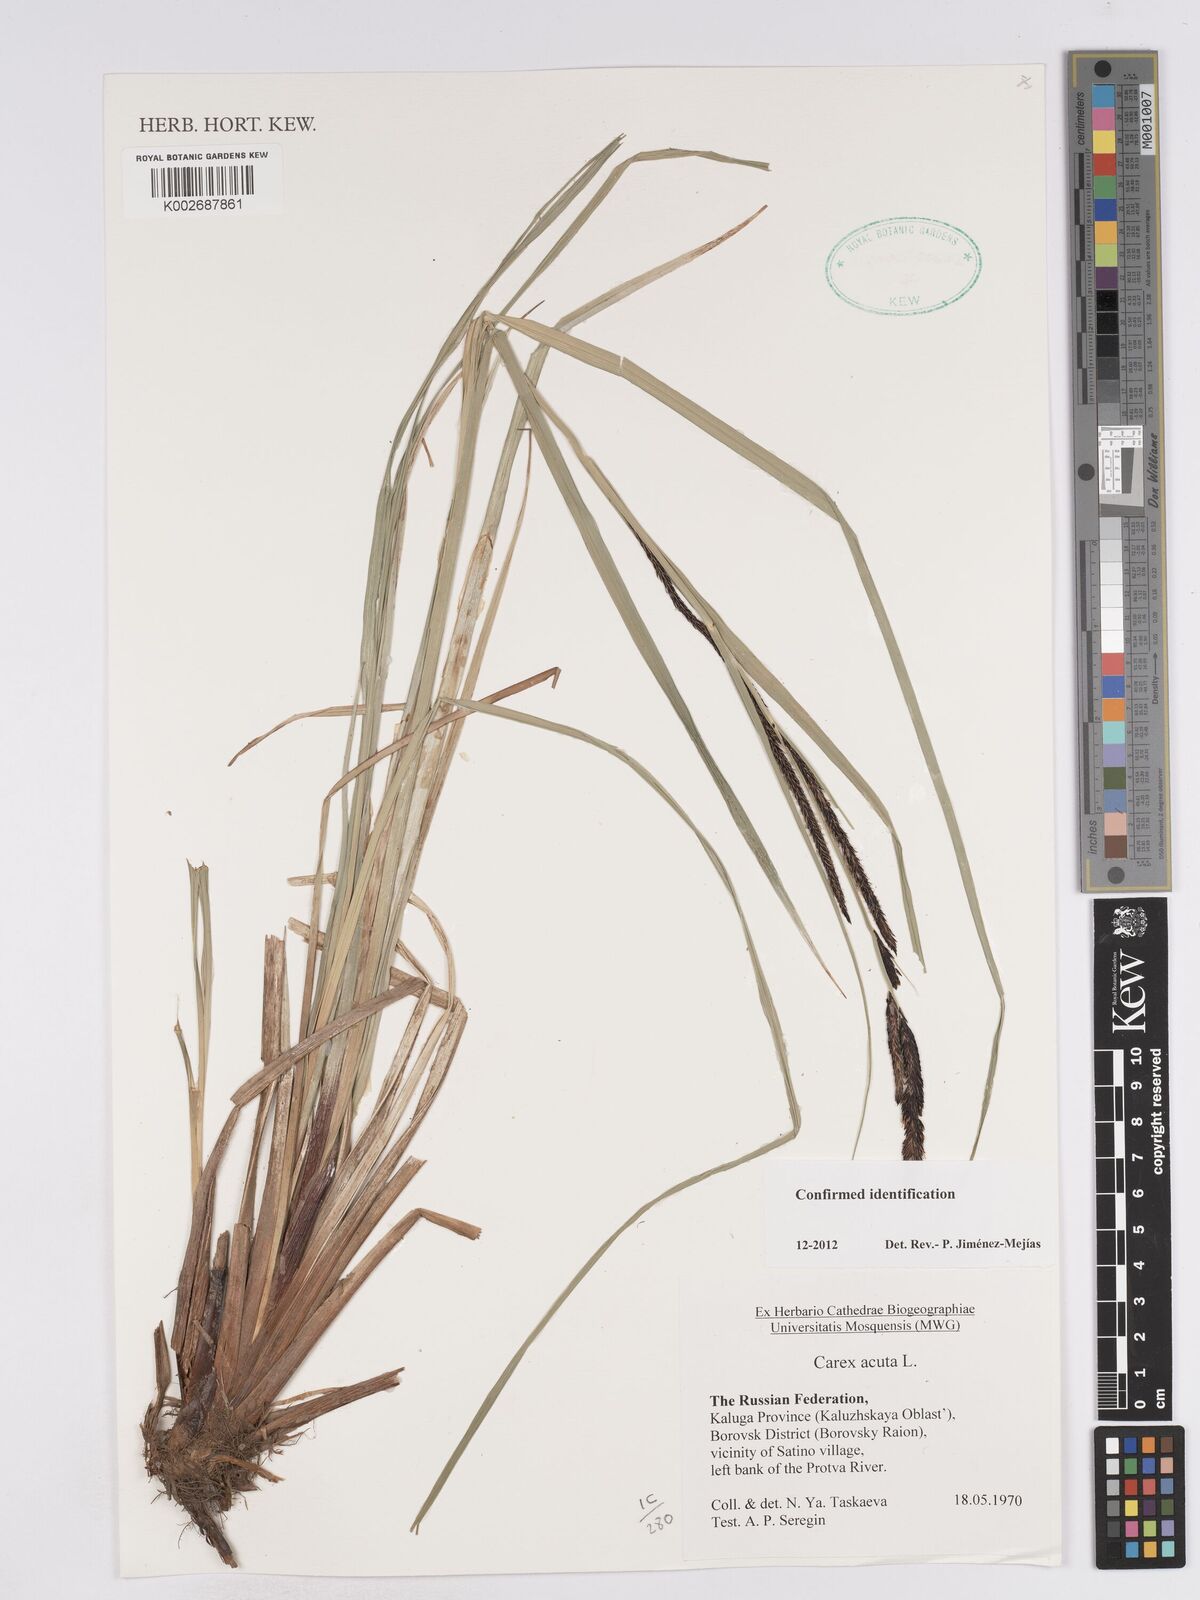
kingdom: Plantae
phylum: Tracheophyta
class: Liliopsida
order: Poales
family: Cyperaceae
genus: Carex
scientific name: Carex acuta
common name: Slender tufted-sedge
